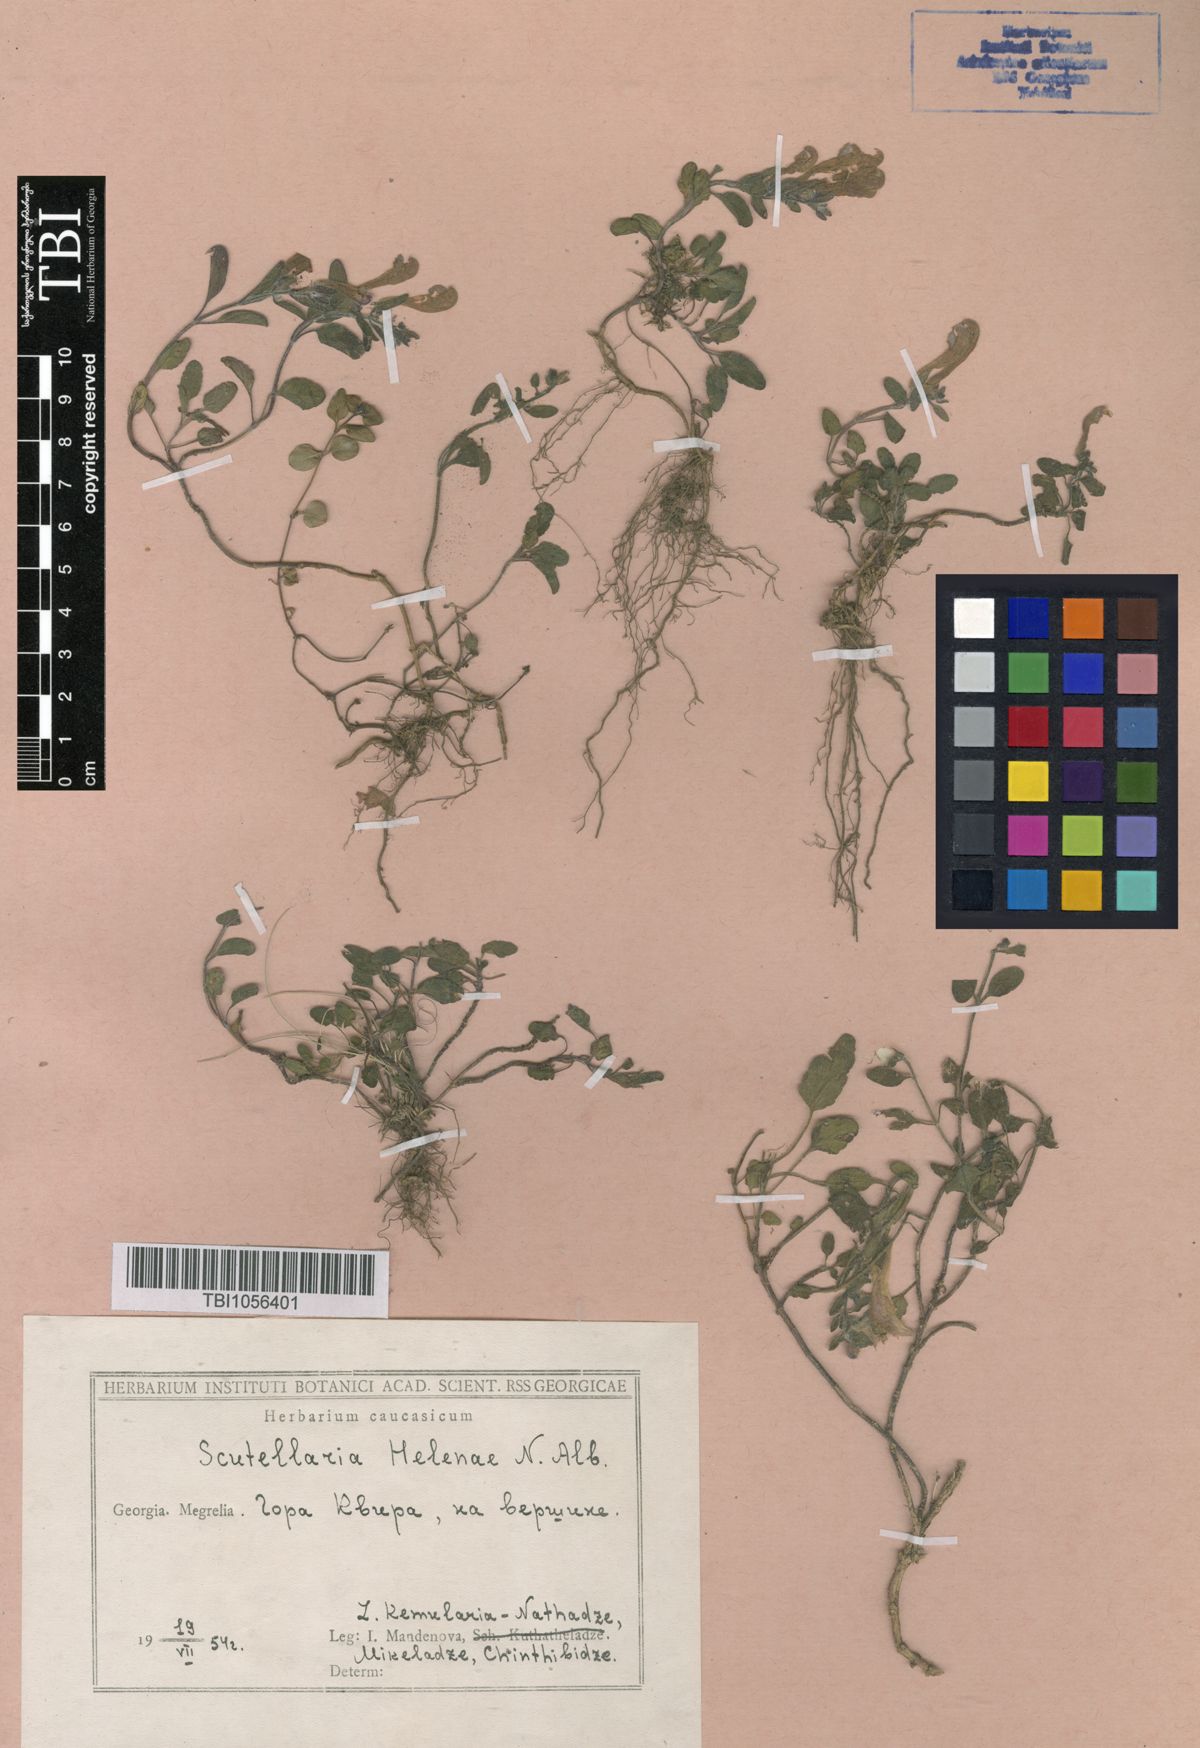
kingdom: Plantae
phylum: Tracheophyta
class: Magnoliopsida
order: Lamiales
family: Lamiaceae
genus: Scutellaria
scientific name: Scutellaria helenae
